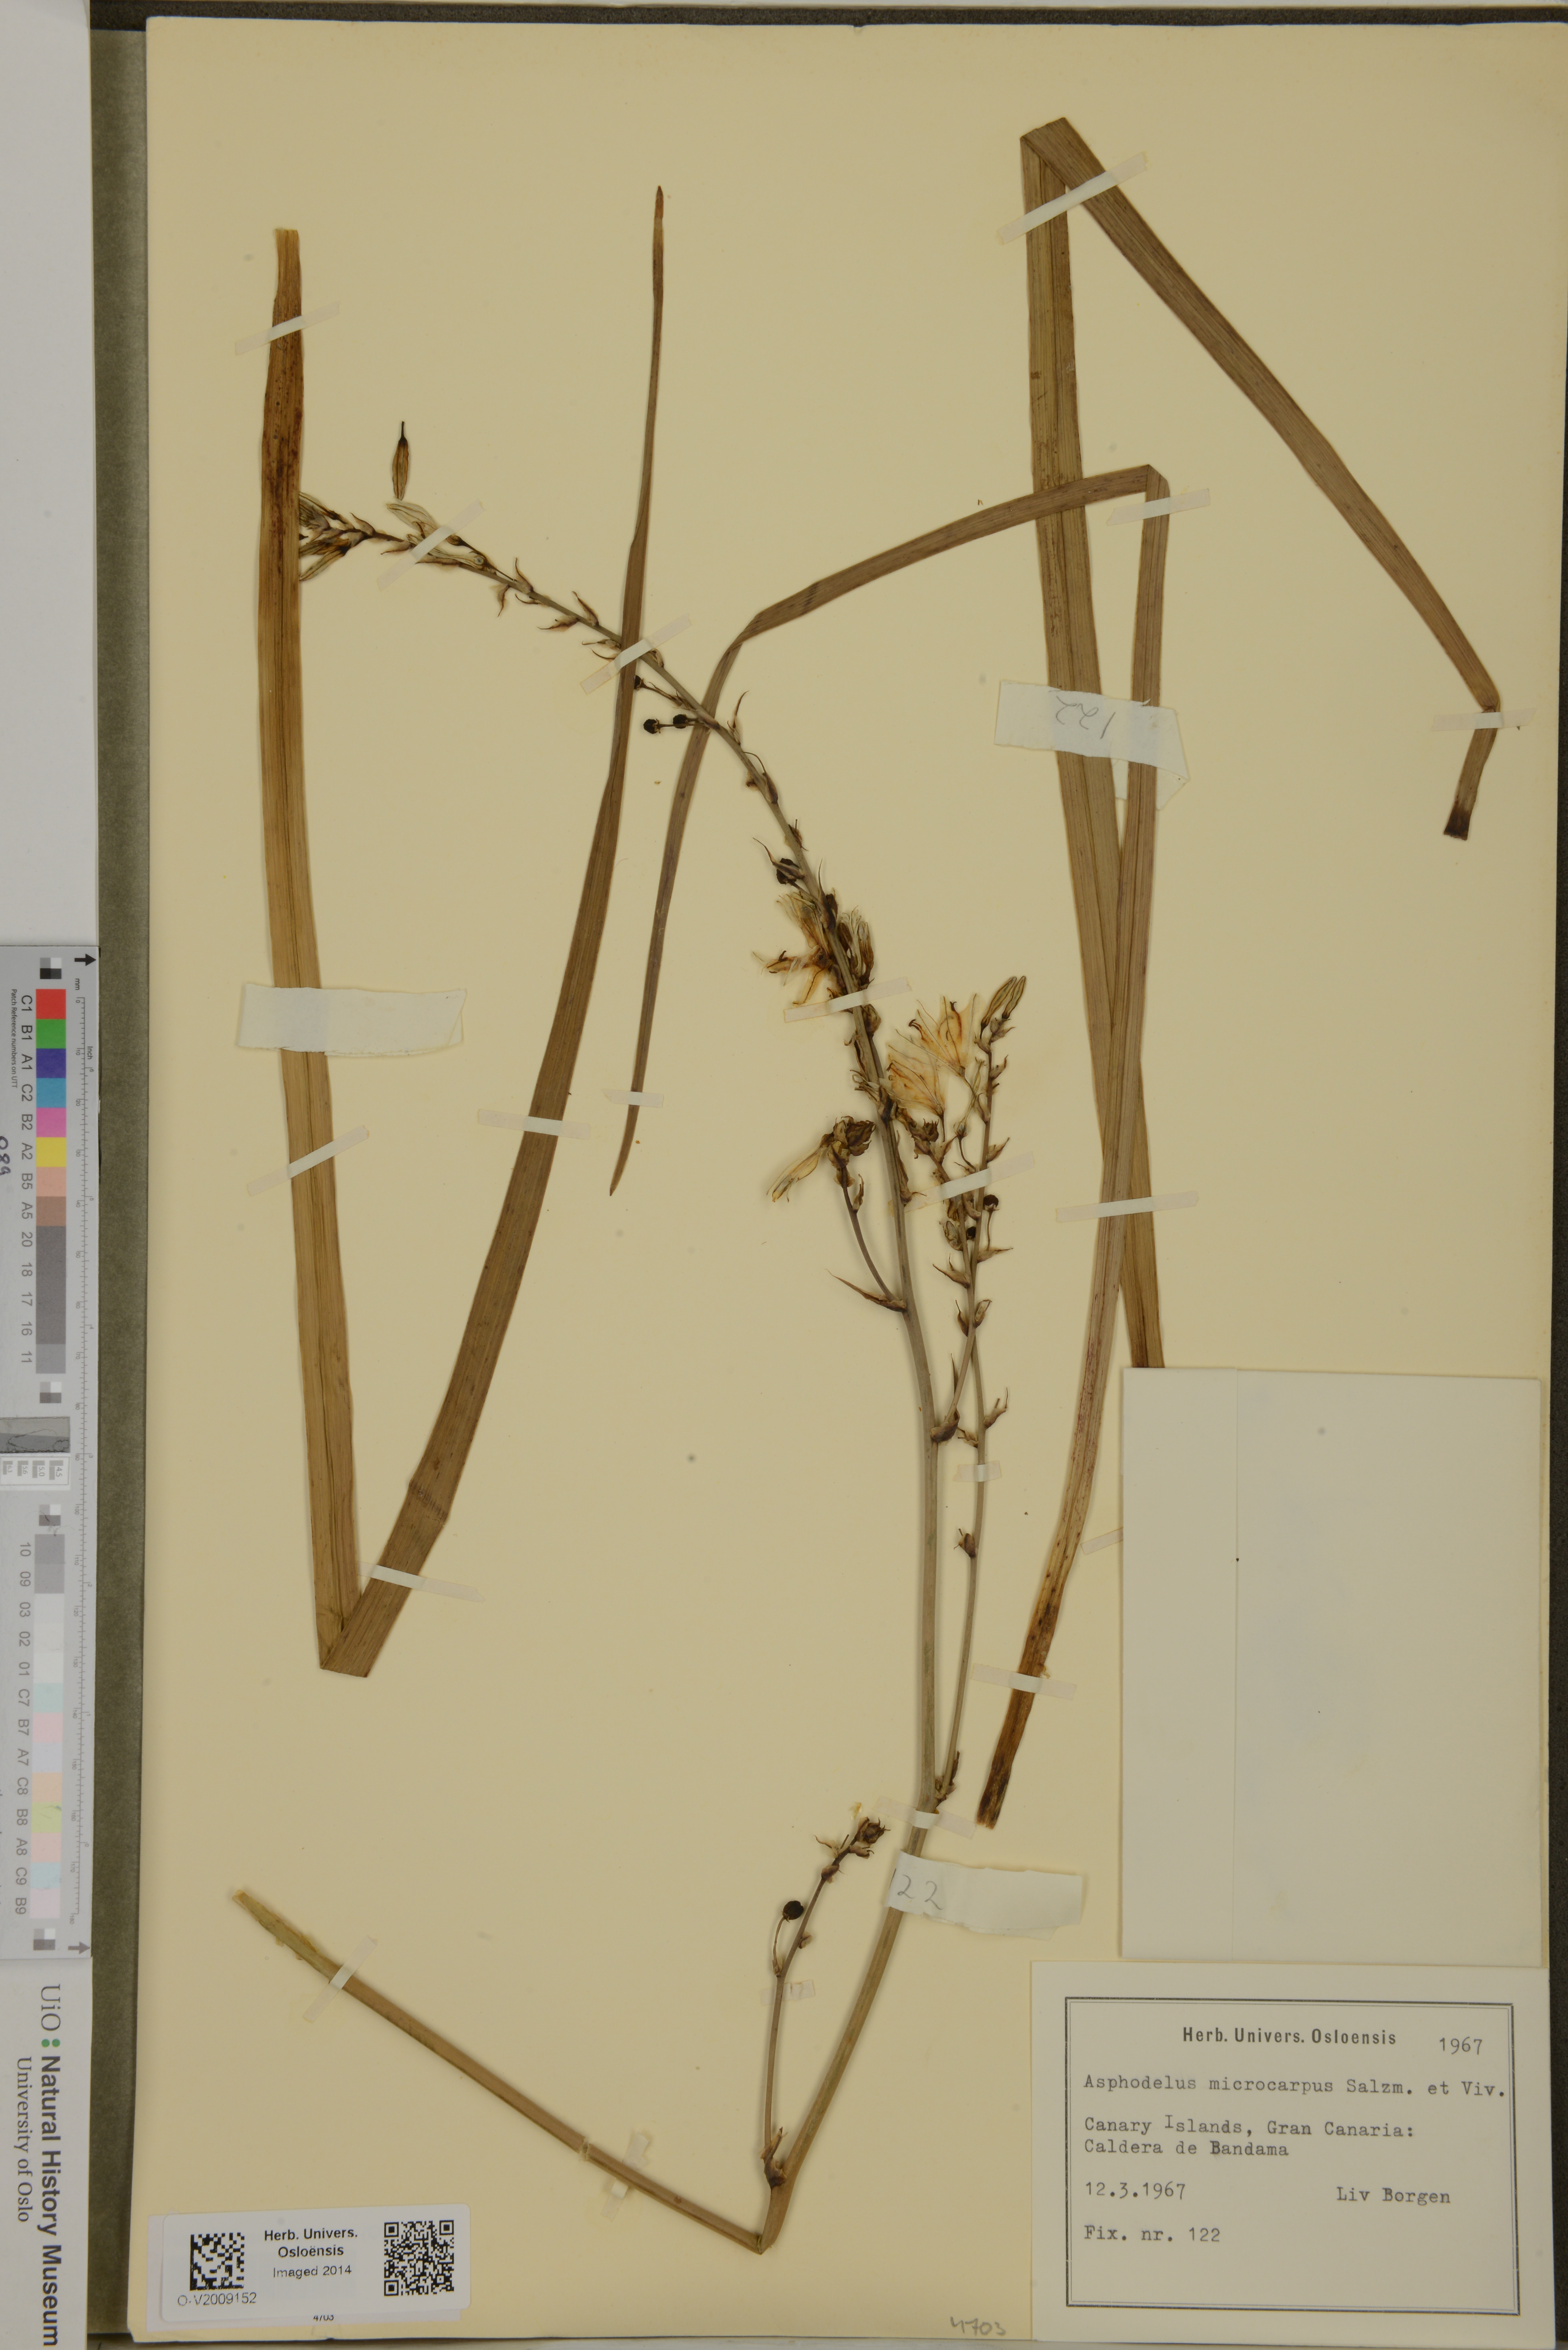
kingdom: Plantae
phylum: Tracheophyta
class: Liliopsida
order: Asparagales
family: Asphodelaceae
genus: Asphodelus
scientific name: Asphodelus ramosus
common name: Silverrod
